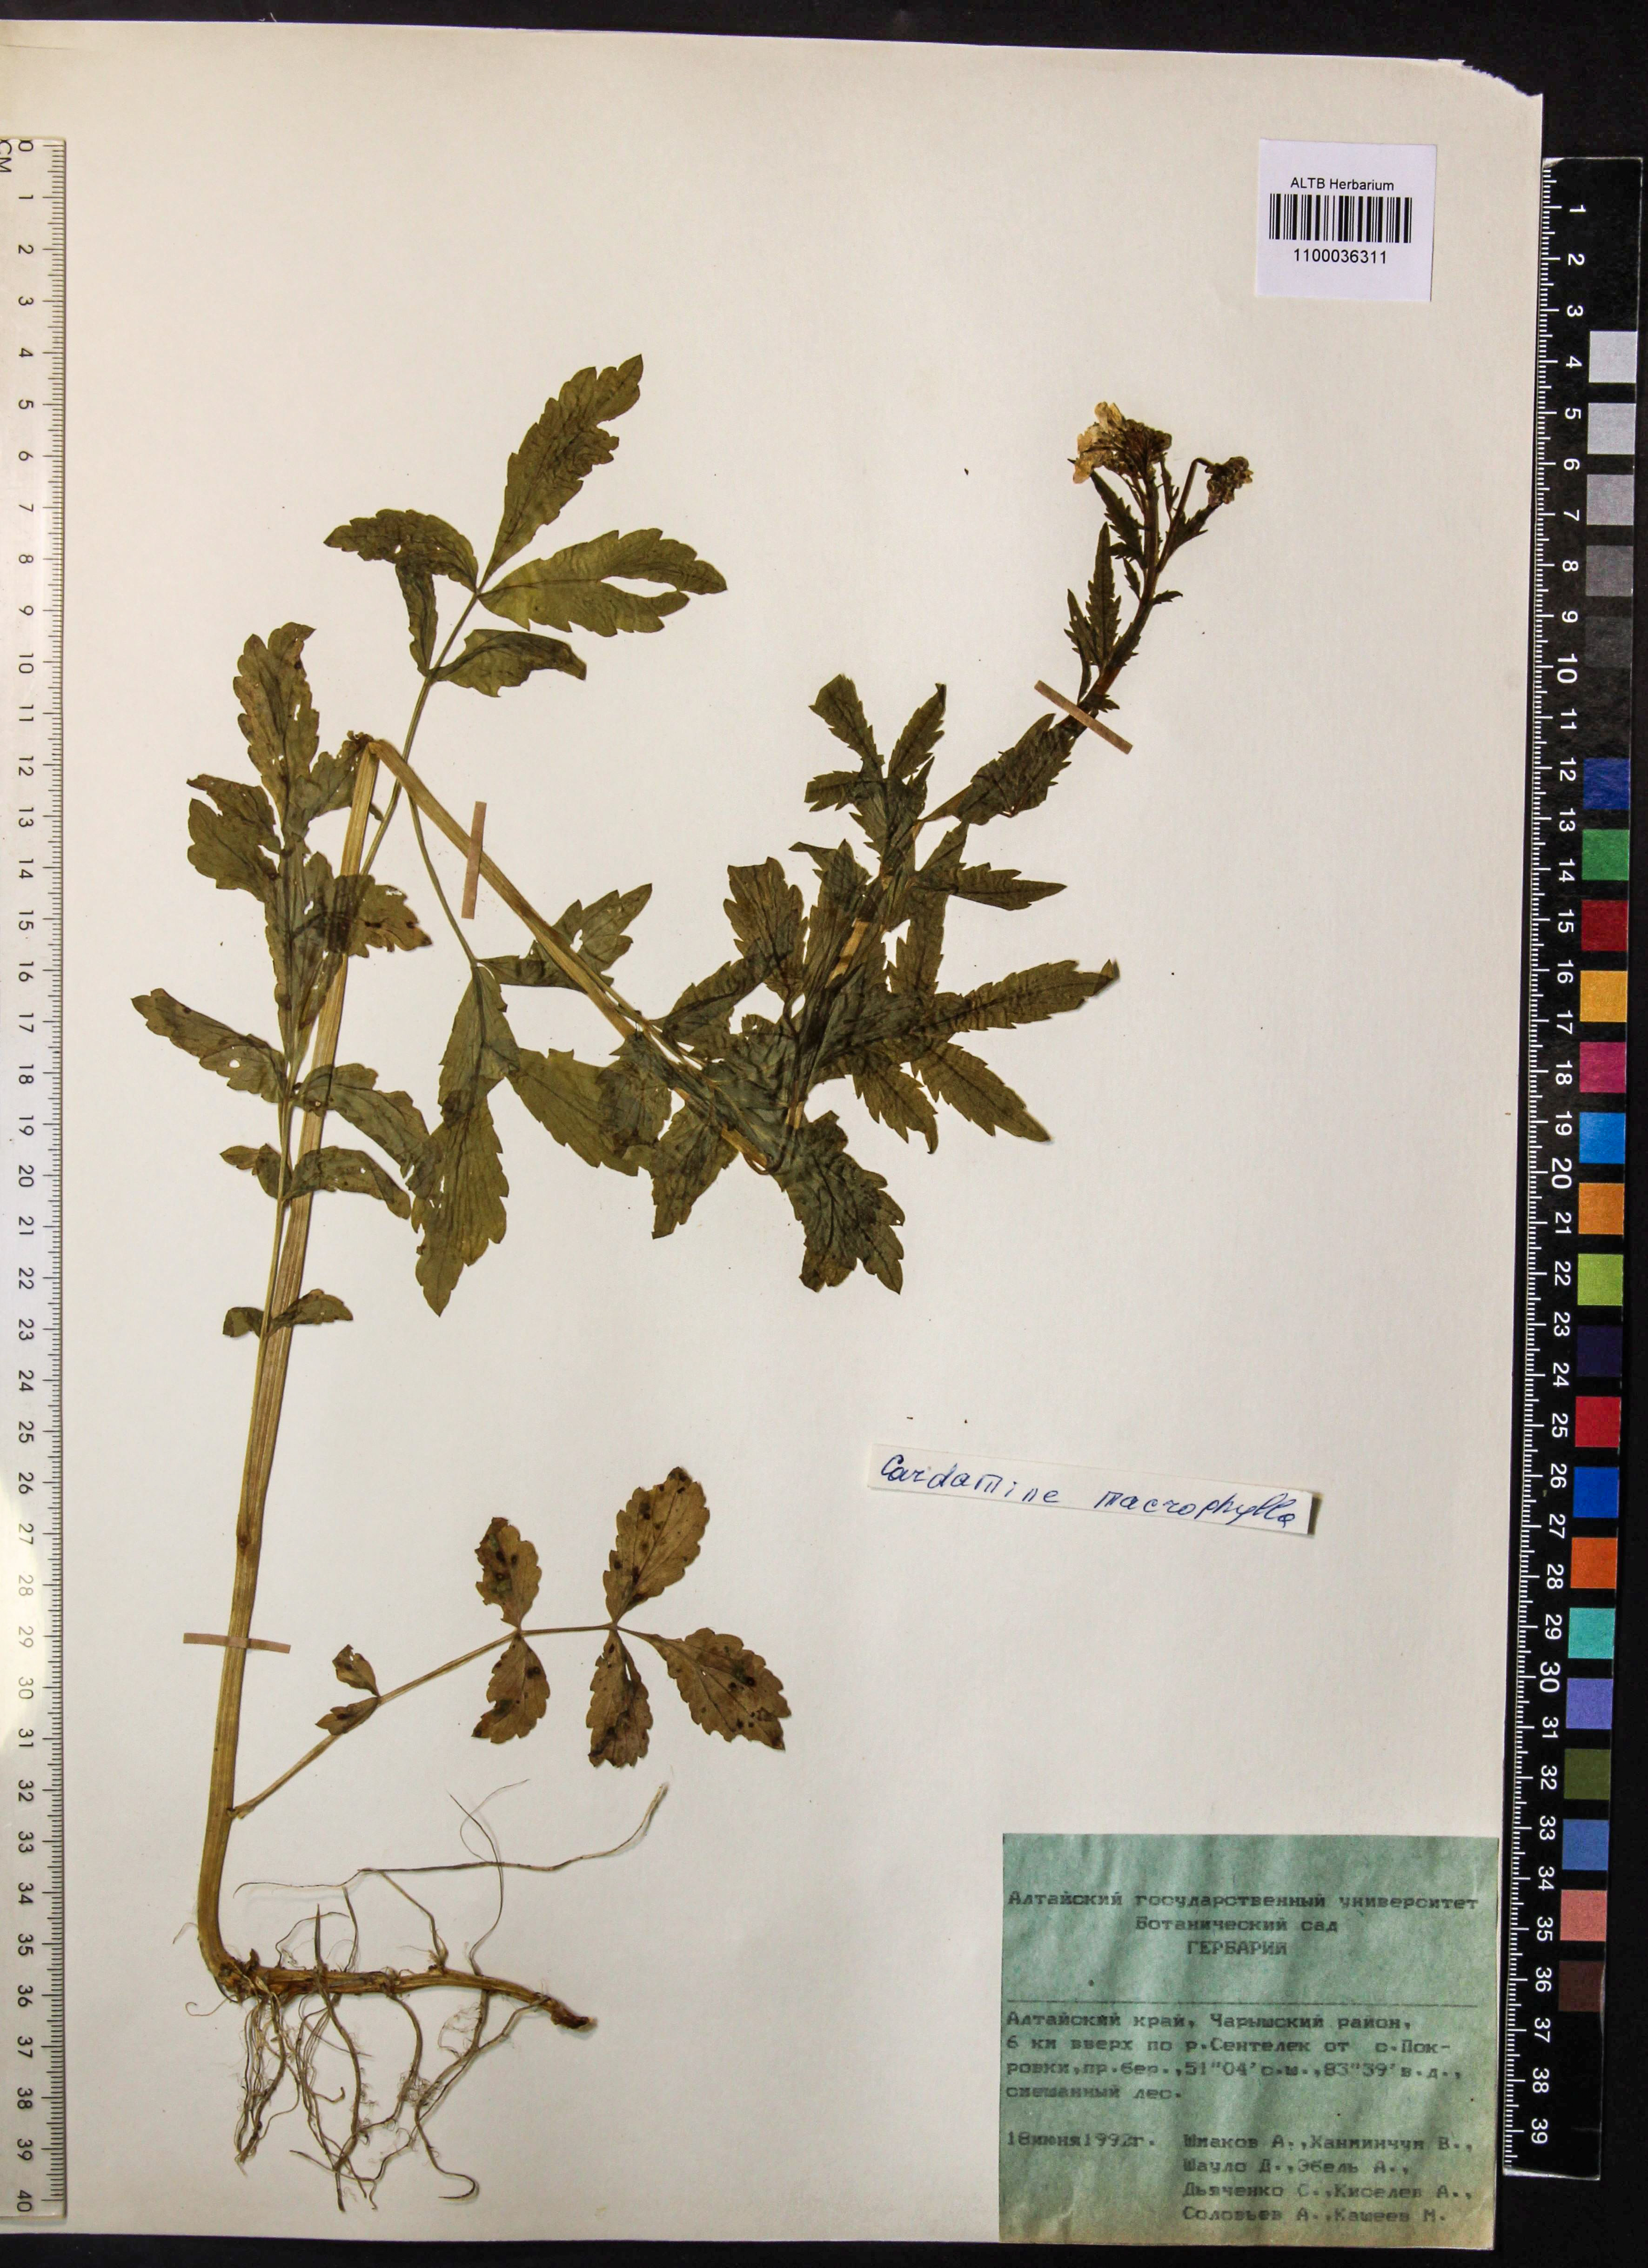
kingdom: Plantae
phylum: Tracheophyta
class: Magnoliopsida
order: Brassicales
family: Brassicaceae
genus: Cardamine
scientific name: Cardamine macrophylla
